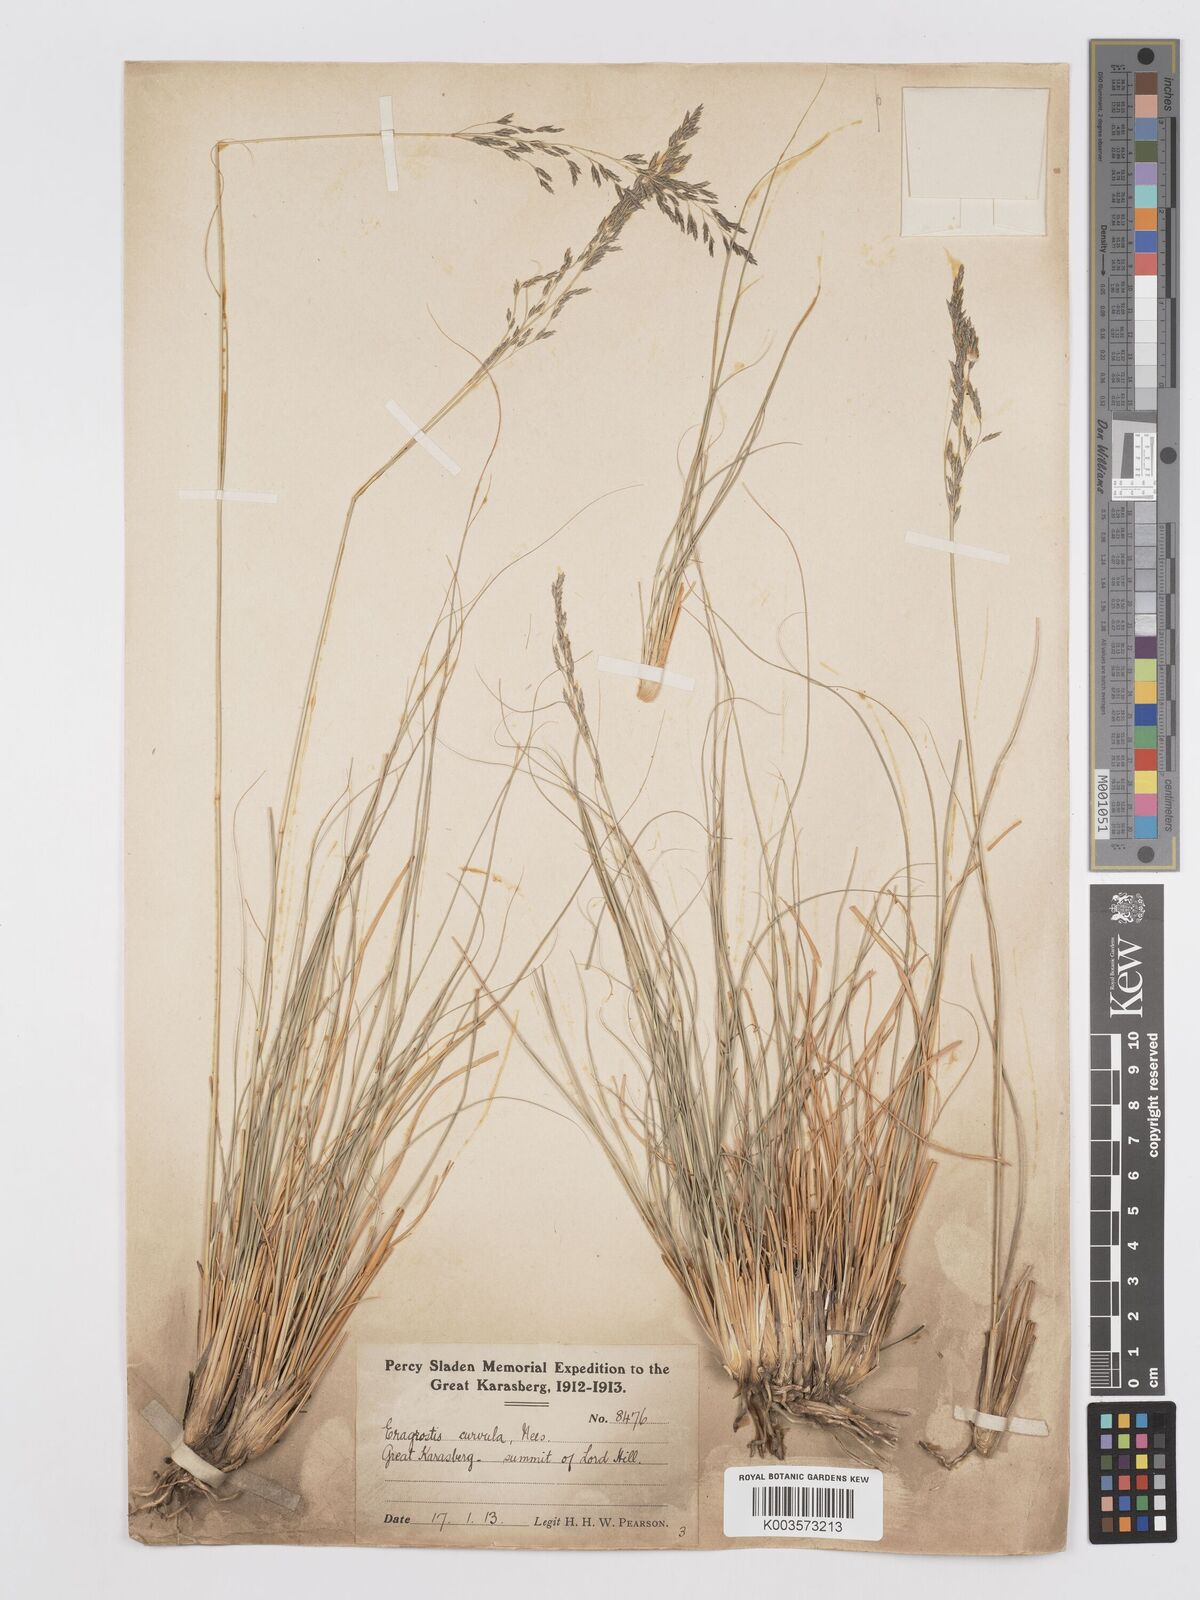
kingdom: Plantae
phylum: Tracheophyta
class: Liliopsida
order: Poales
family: Poaceae
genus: Eragrostis
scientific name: Eragrostis curvula
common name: African love-grass
